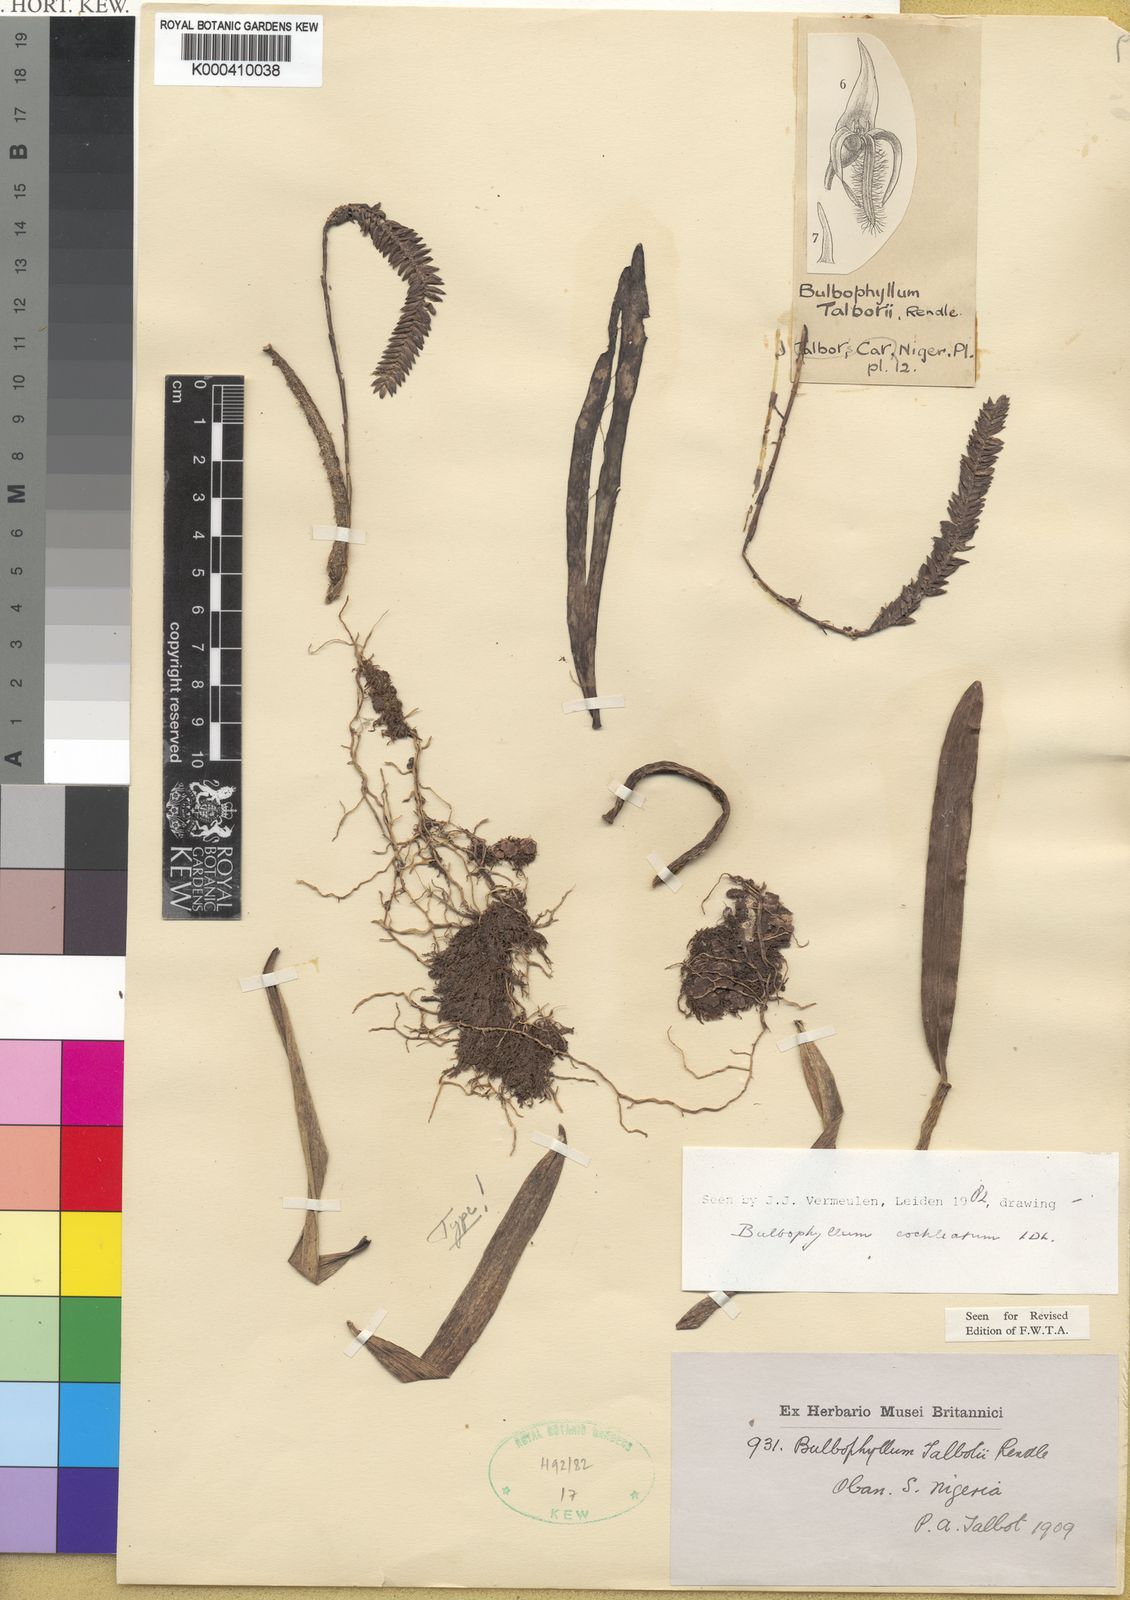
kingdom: Plantae
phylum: Tracheophyta
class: Liliopsida
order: Asparagales
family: Orchidaceae
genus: Bulbophyllum
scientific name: Bulbophyllum cochleatum
